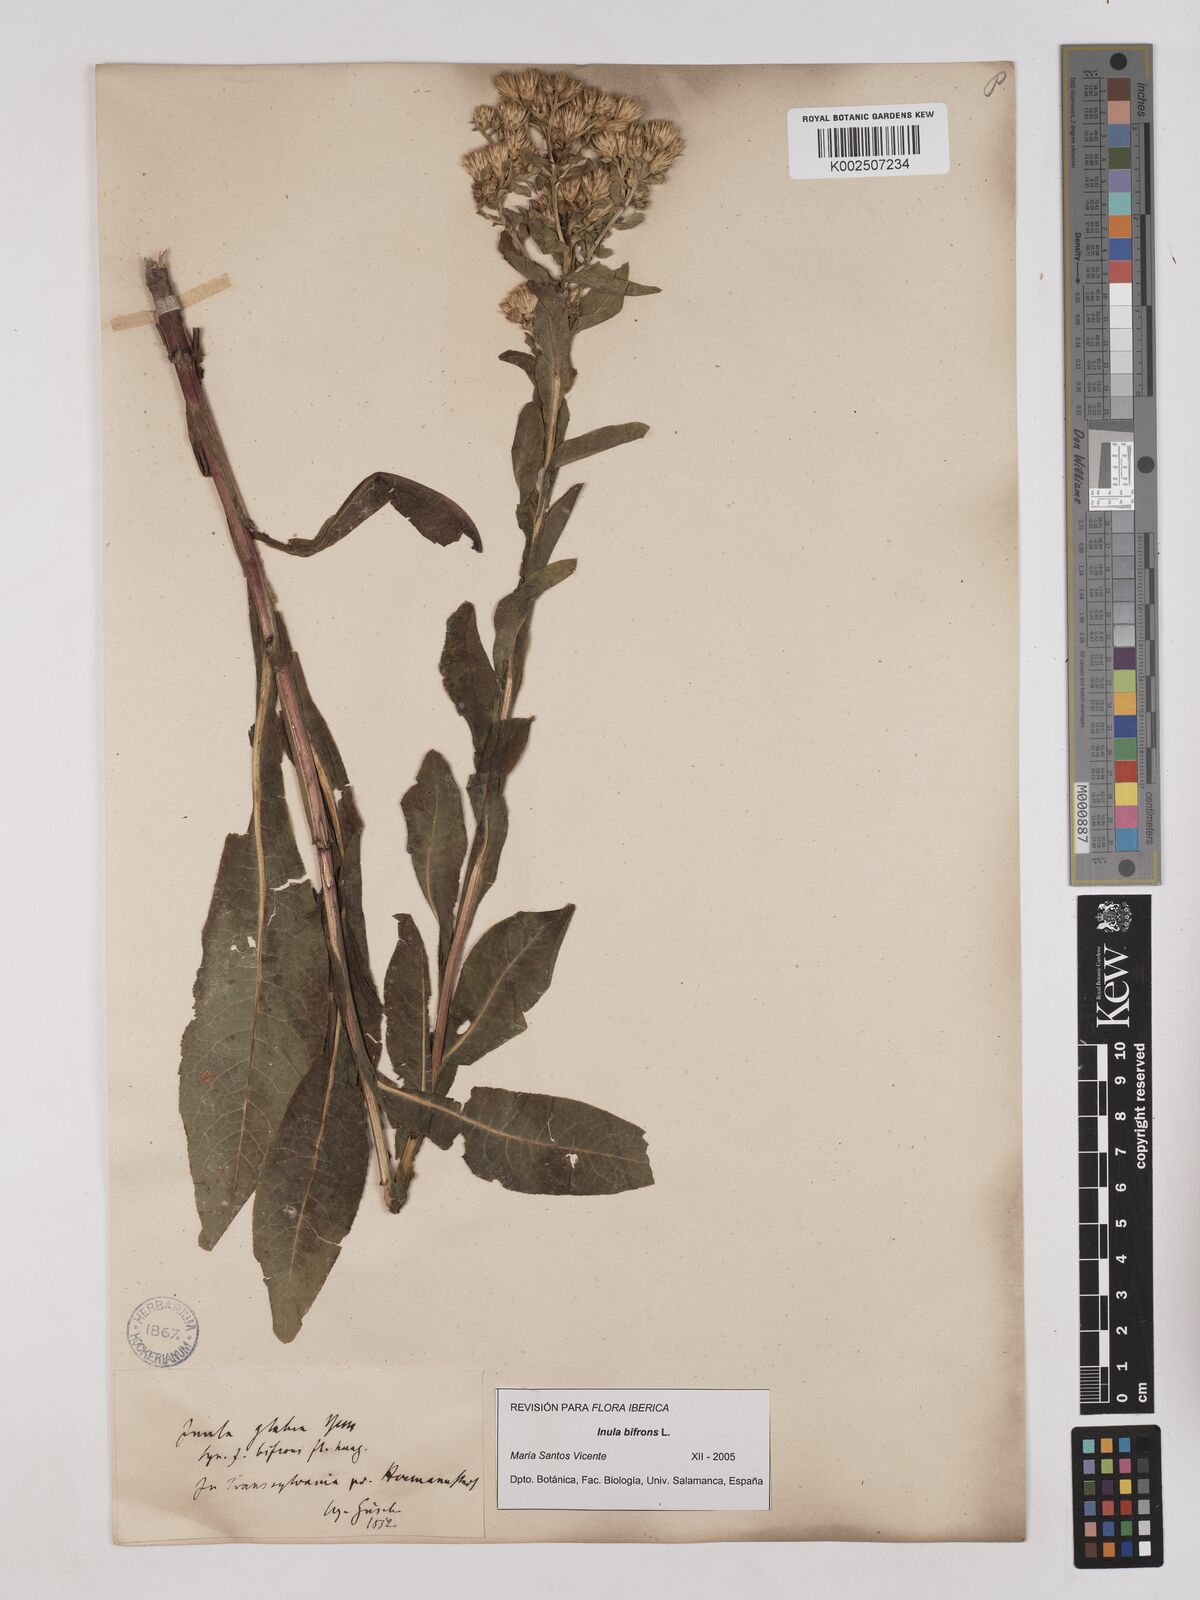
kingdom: Plantae
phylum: Tracheophyta
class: Magnoliopsida
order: Asterales
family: Asteraceae
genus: Pentanema
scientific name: Pentanema bifrons
